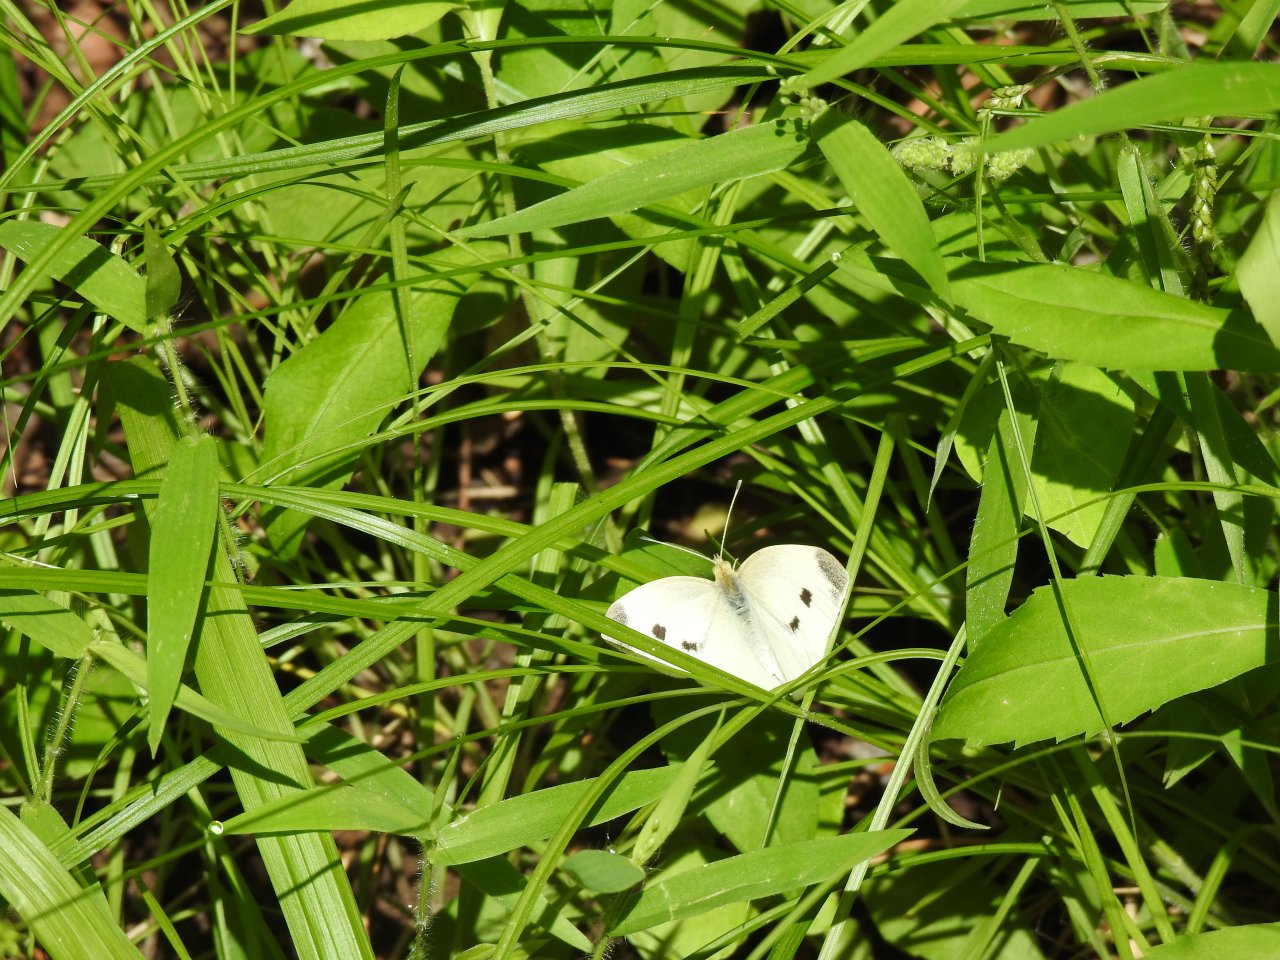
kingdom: Animalia
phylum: Arthropoda
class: Insecta
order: Lepidoptera
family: Pieridae
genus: Pieris
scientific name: Pieris rapae
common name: Cabbage White
